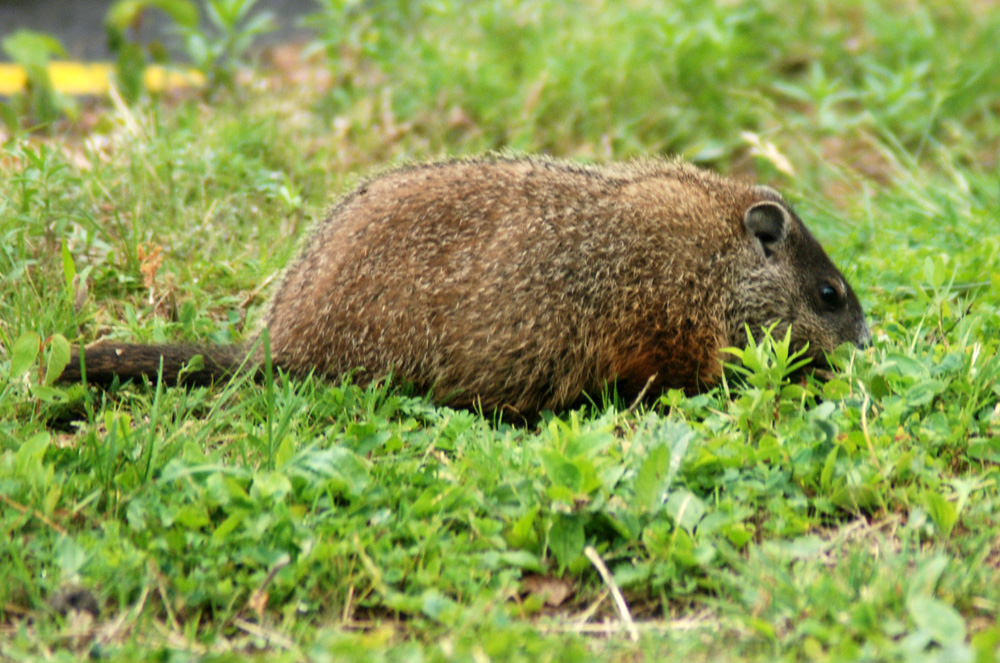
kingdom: Animalia
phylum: Chordata
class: Mammalia
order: Rodentia
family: Sciuridae
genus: Marmota
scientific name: Marmota monax
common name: Groundhog
